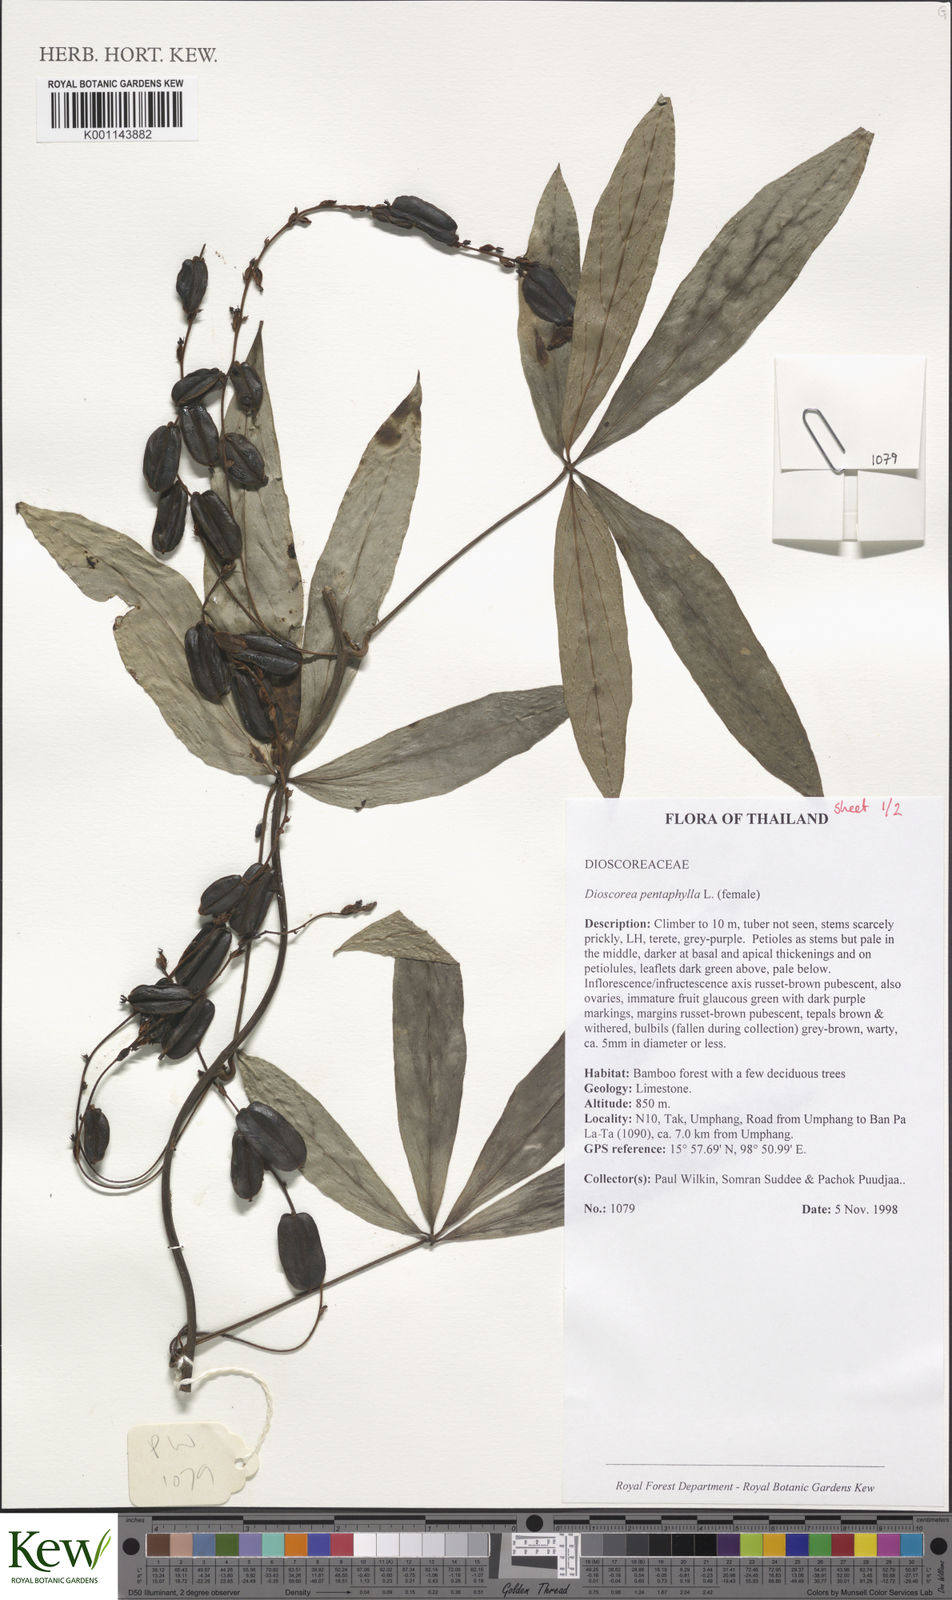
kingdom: Plantae
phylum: Tracheophyta
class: Liliopsida
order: Dioscoreales
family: Dioscoreaceae
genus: Dioscorea
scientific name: Dioscorea pentaphylla
